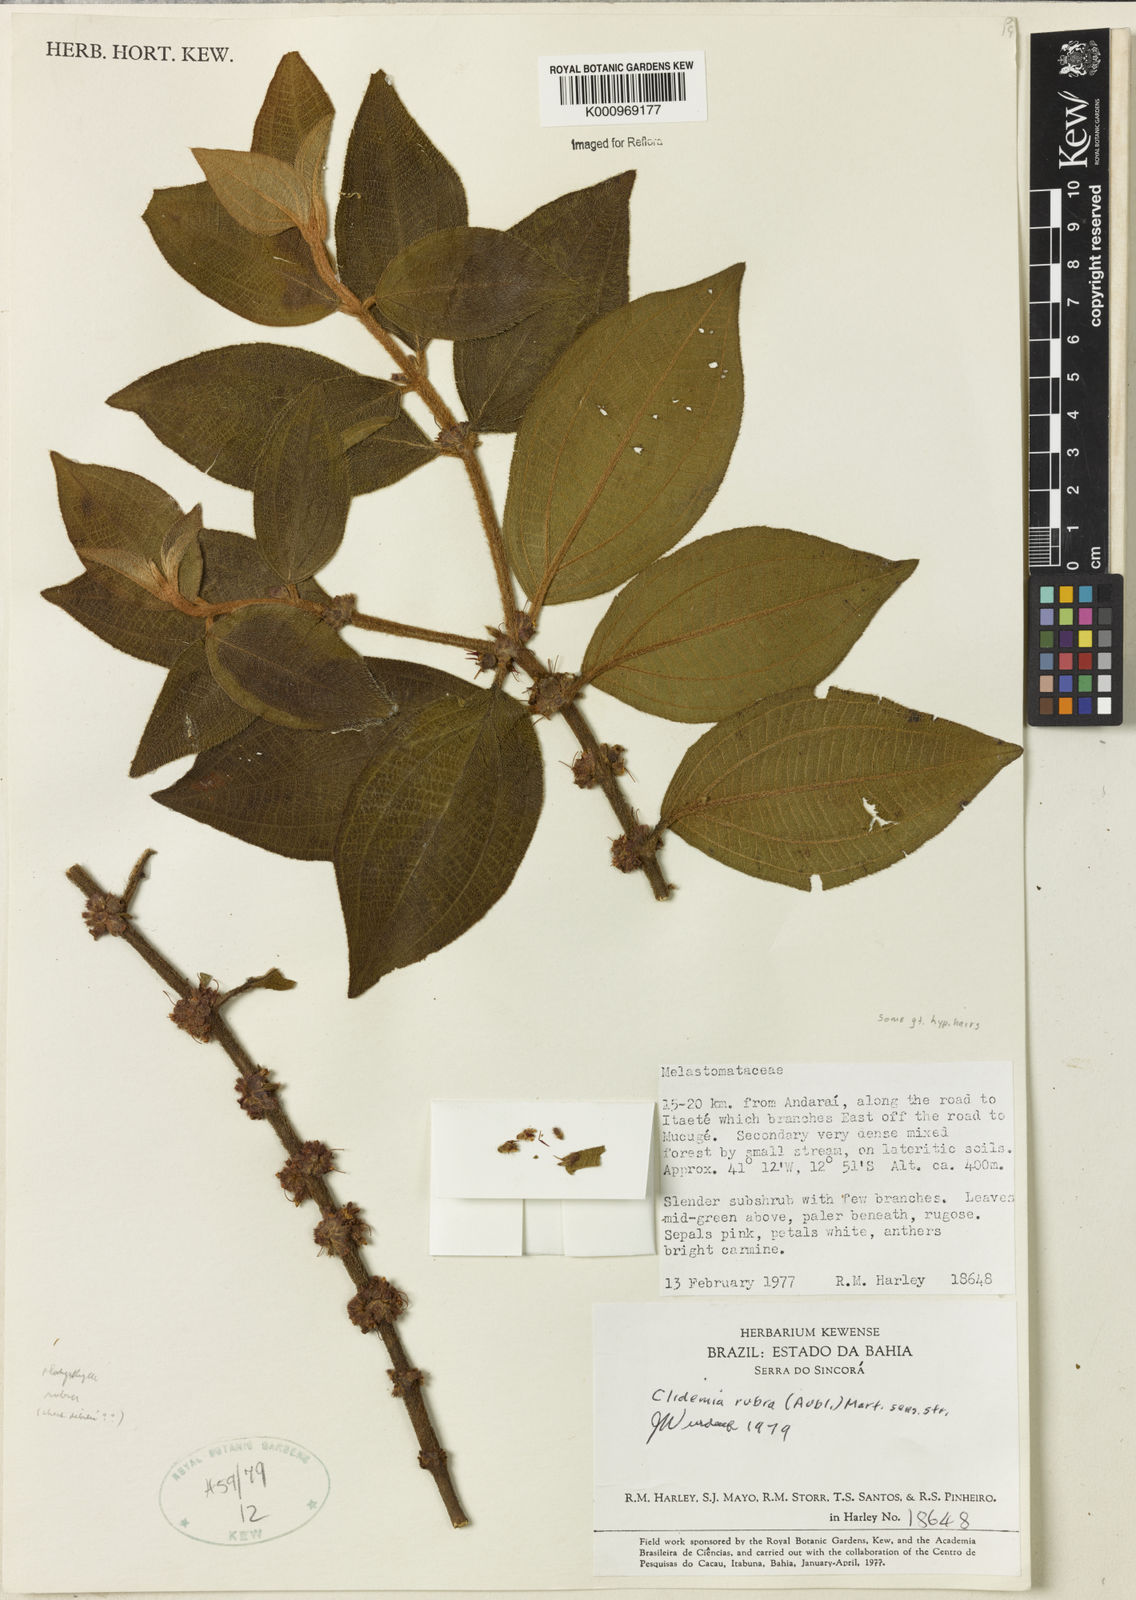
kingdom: Plantae
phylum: Tracheophyta
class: Magnoliopsida
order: Myrtales
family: Melastomataceae
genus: Miconia
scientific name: Miconia rubra
